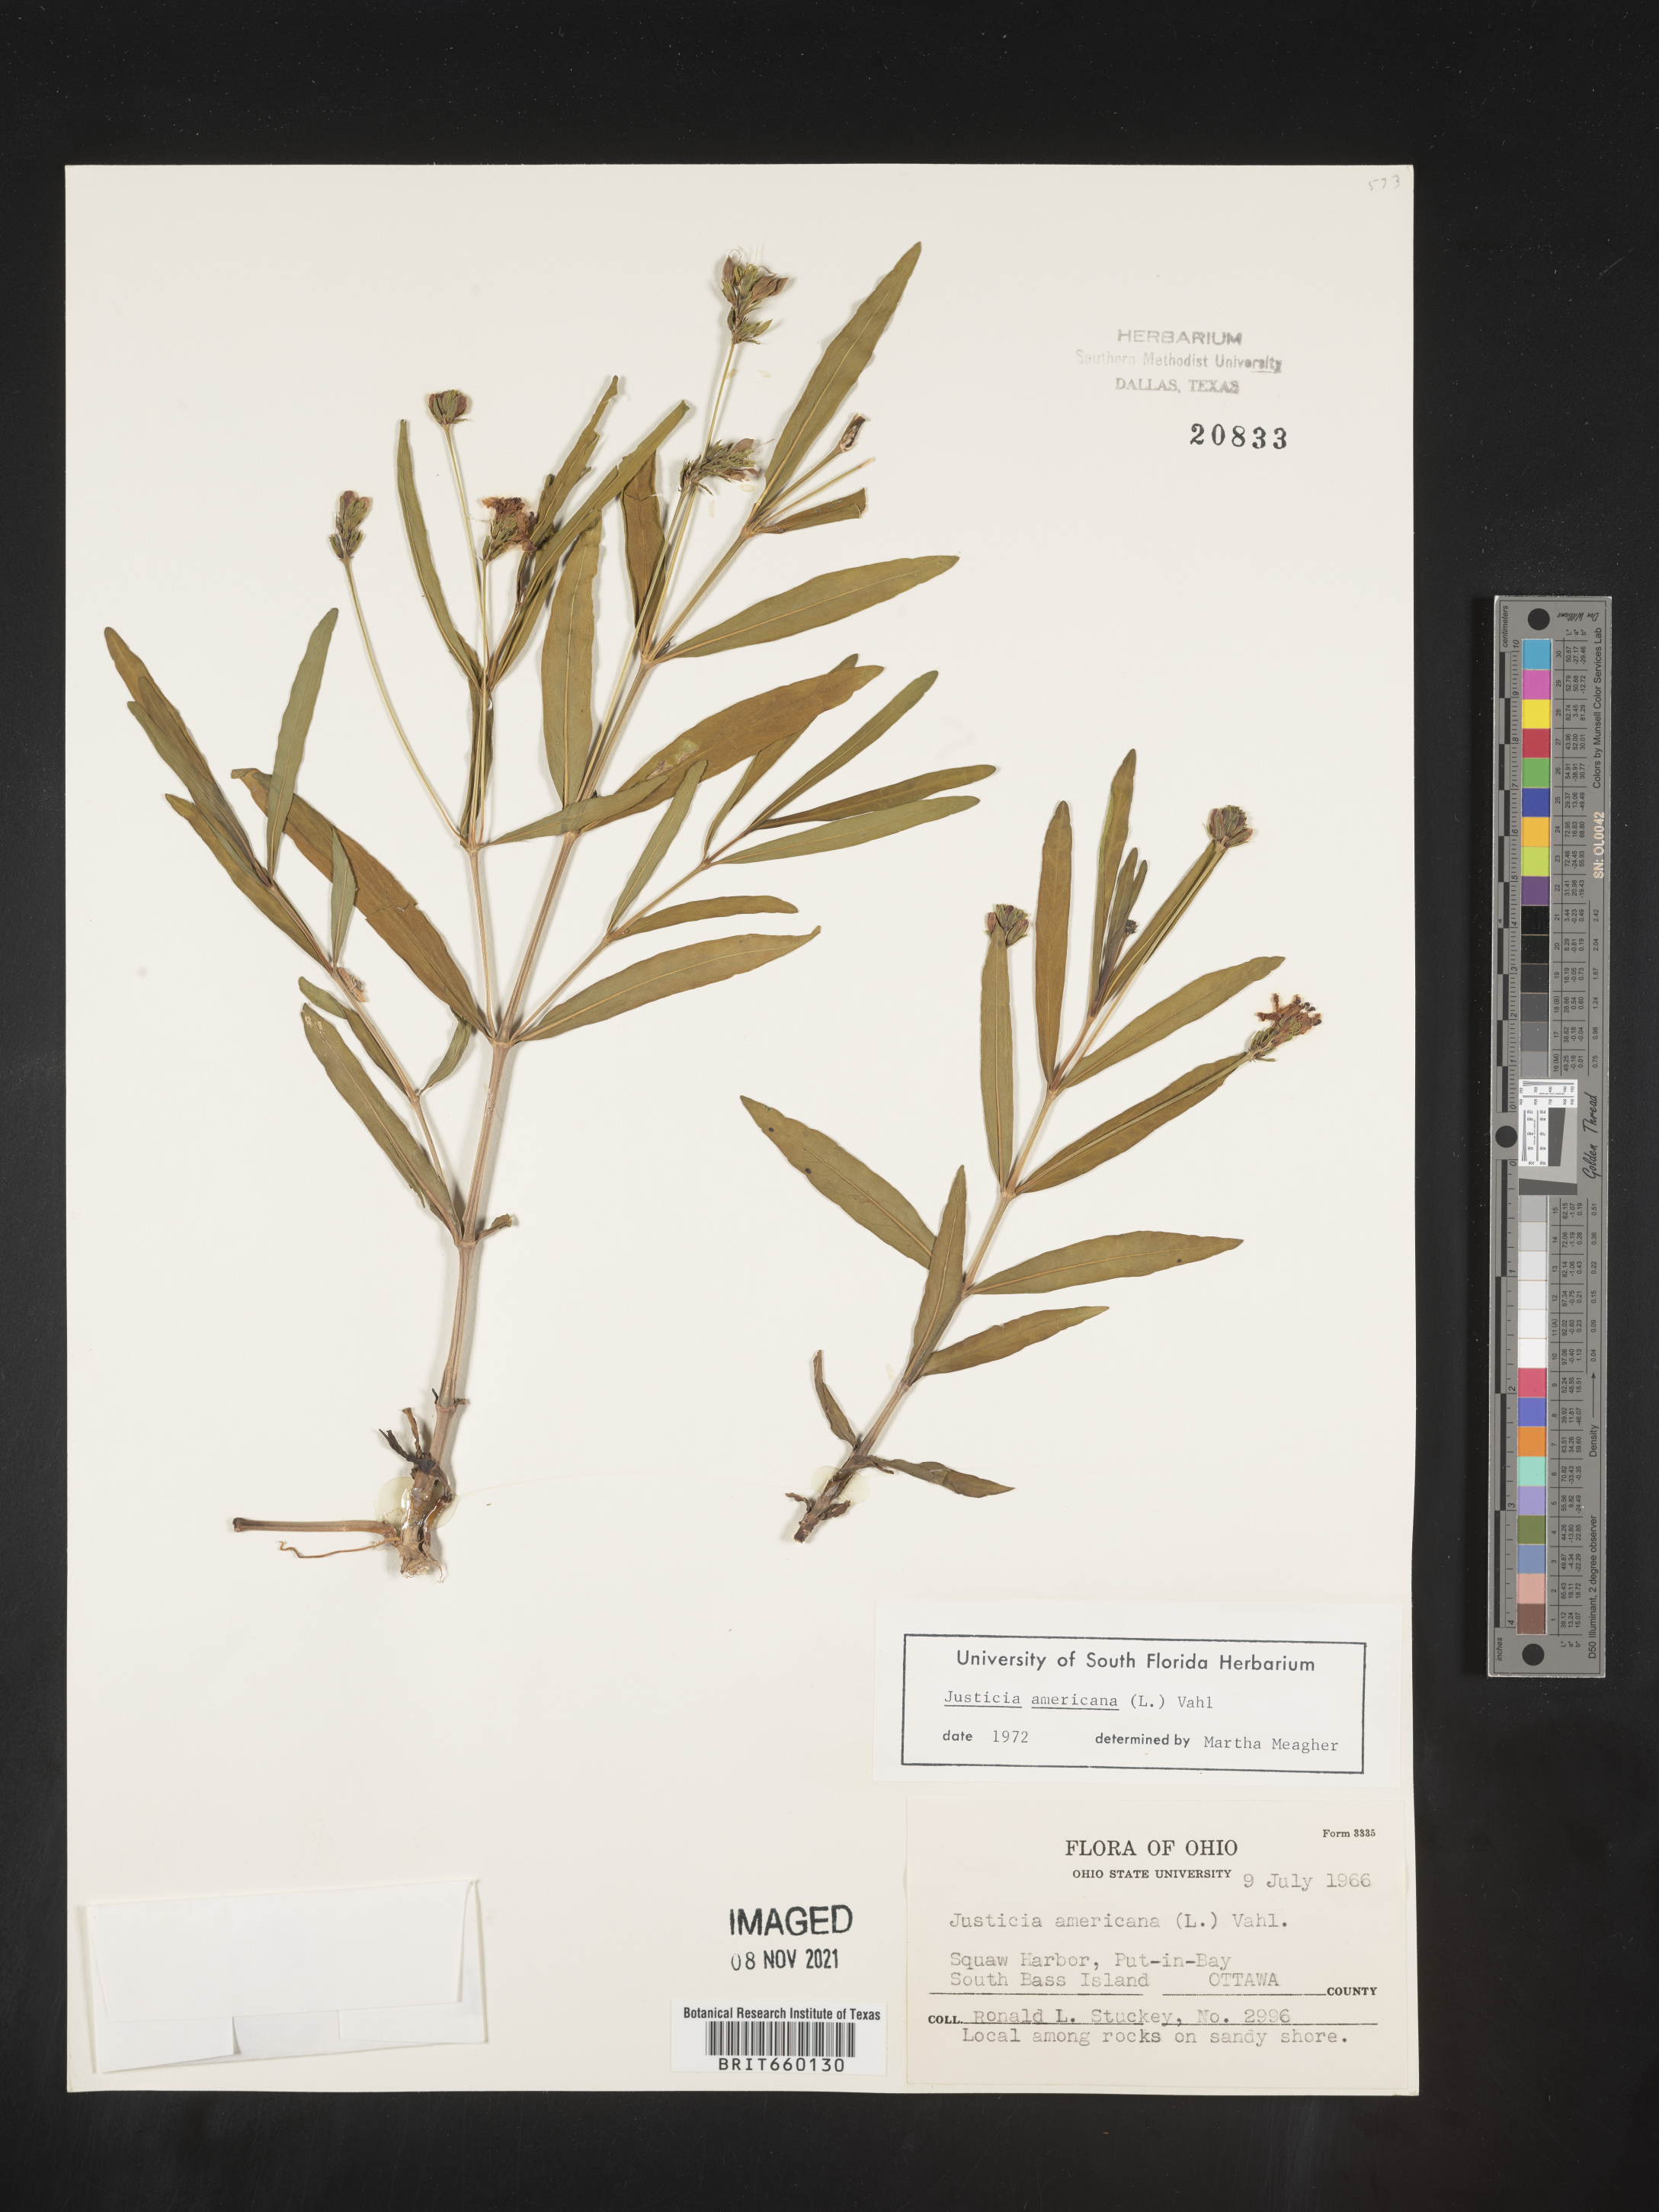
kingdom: Plantae
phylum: Tracheophyta
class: Magnoliopsida
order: Lamiales
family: Acanthaceae
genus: Dianthera
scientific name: Dianthera americana
